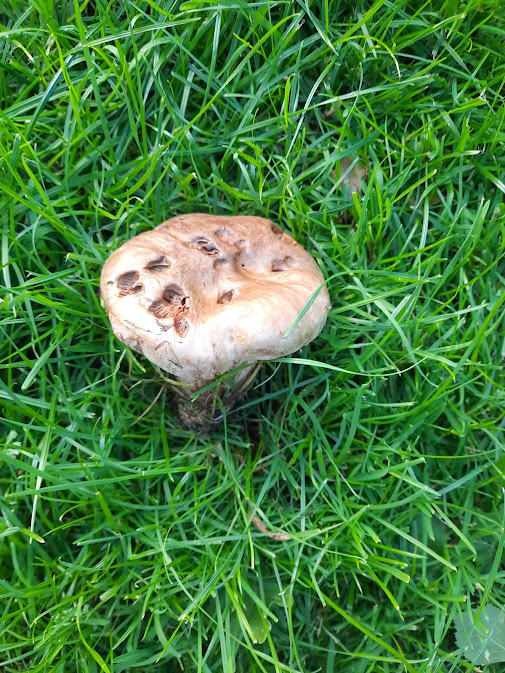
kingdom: Fungi
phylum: Basidiomycota
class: Agaricomycetes
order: Boletales
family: Paxillaceae
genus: Paxillus
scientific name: Paxillus
